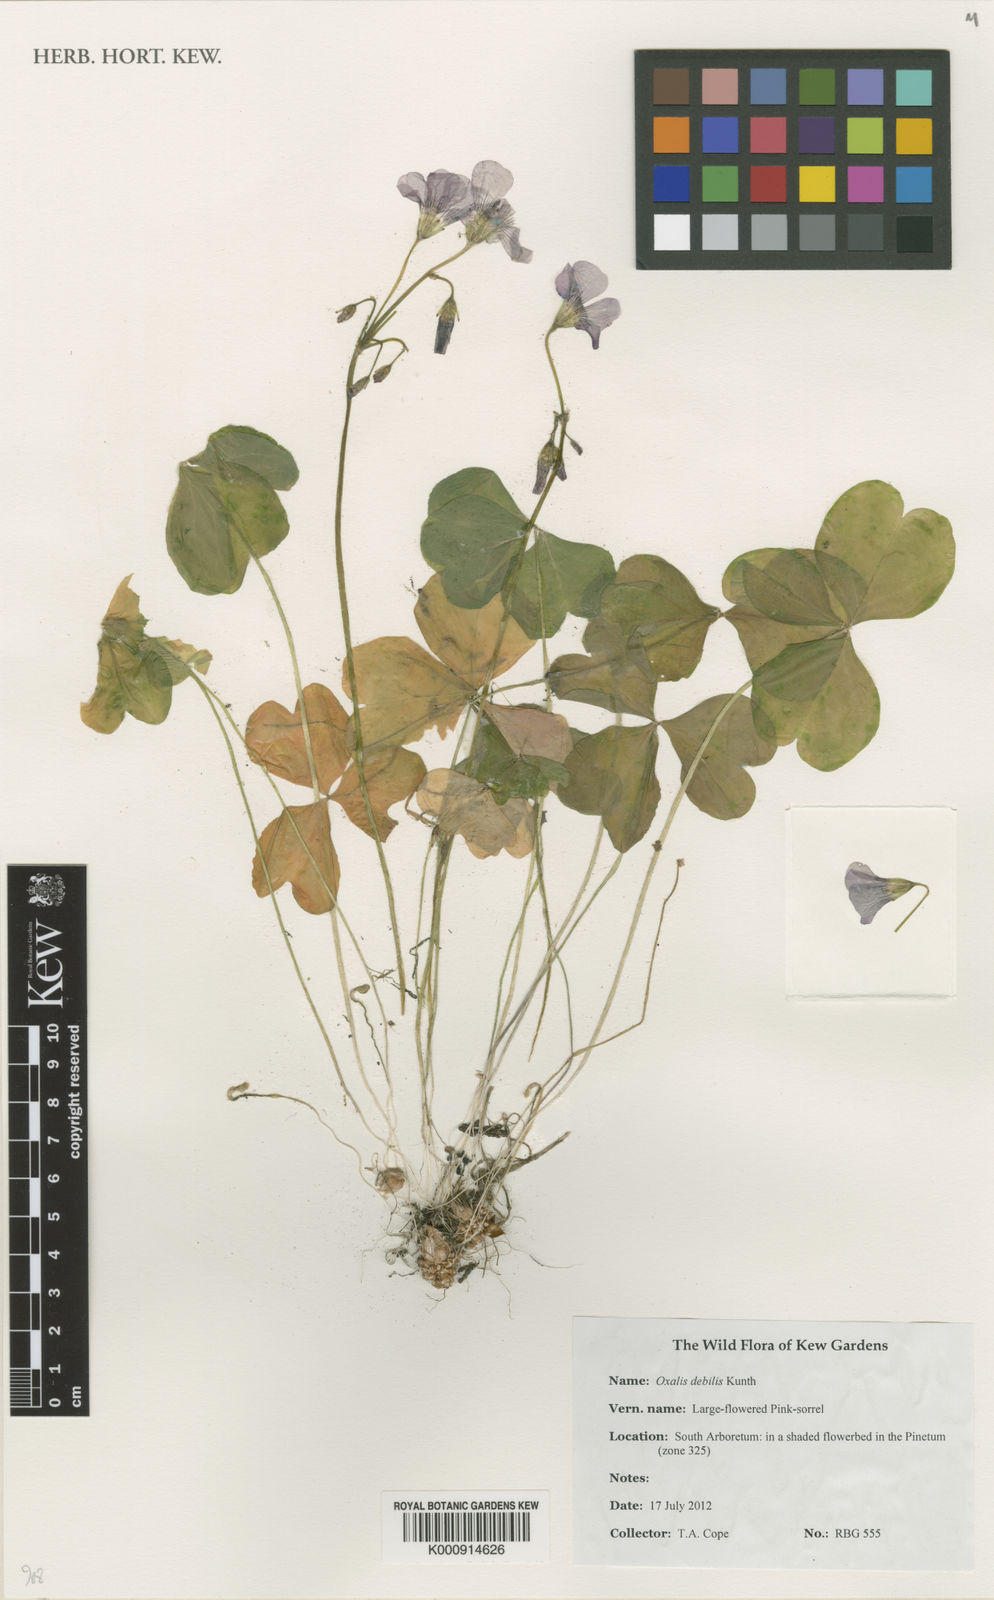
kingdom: Plantae
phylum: Tracheophyta
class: Magnoliopsida
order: Oxalidales
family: Oxalidaceae
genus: Oxalis
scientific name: Oxalis debilis
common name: Large-flowered pink-sorrel
